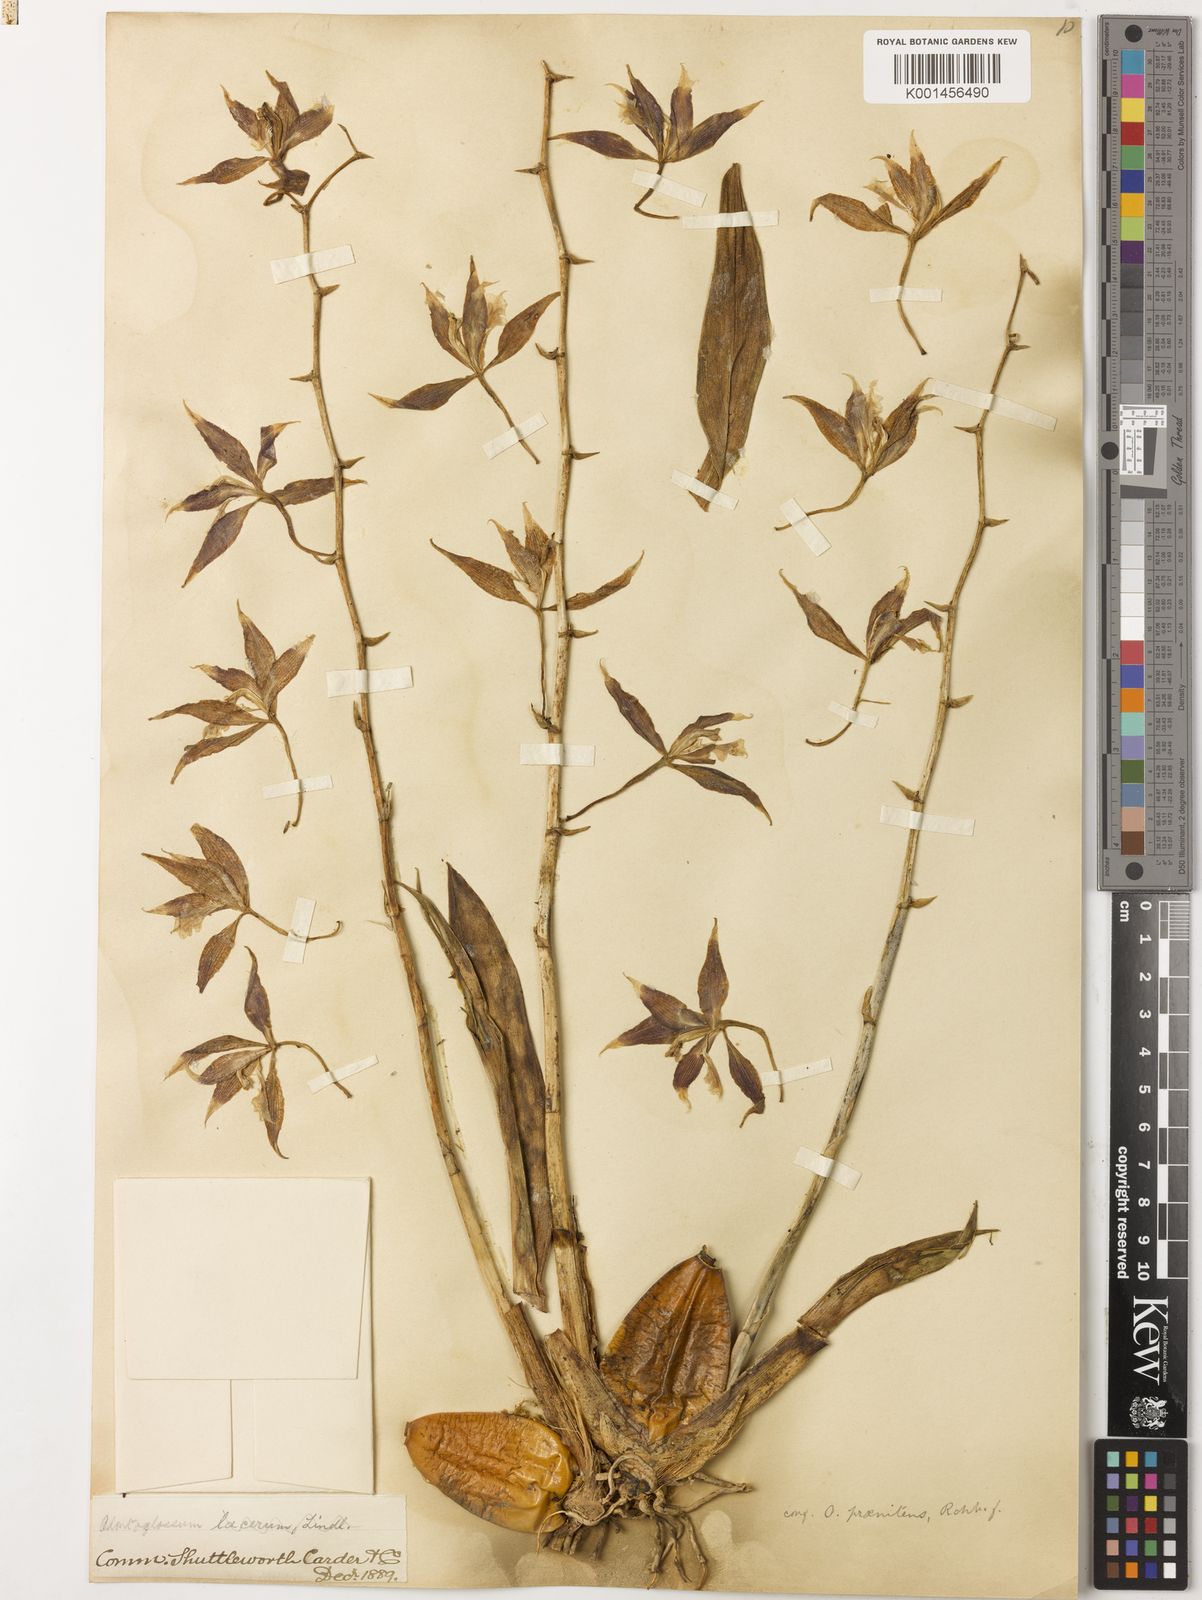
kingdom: Plantae
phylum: Tracheophyta
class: Liliopsida
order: Asparagales
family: Orchidaceae
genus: Oncidium
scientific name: Oncidium praenitens
